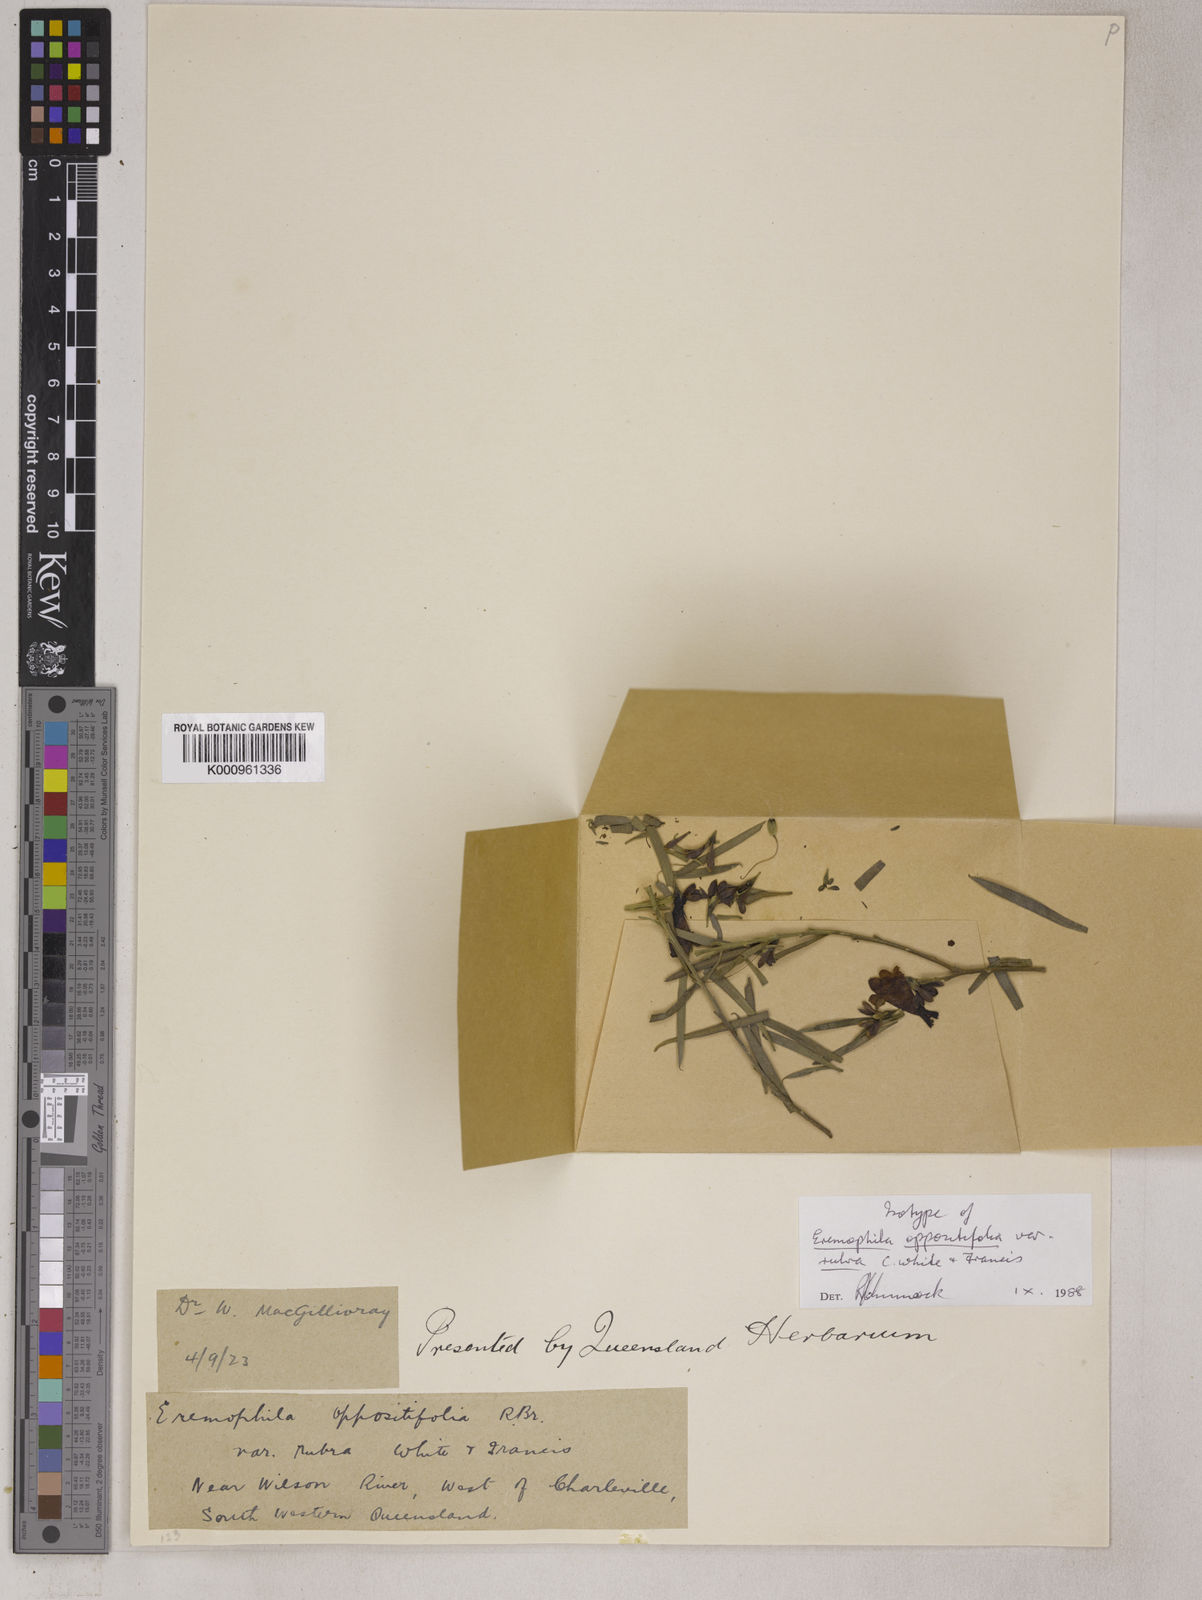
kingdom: Plantae
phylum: Tracheophyta
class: Magnoliopsida
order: Lamiales
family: Scrophulariaceae
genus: Eremophila
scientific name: Eremophila oppositifolia
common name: Mountain-sandalwood
